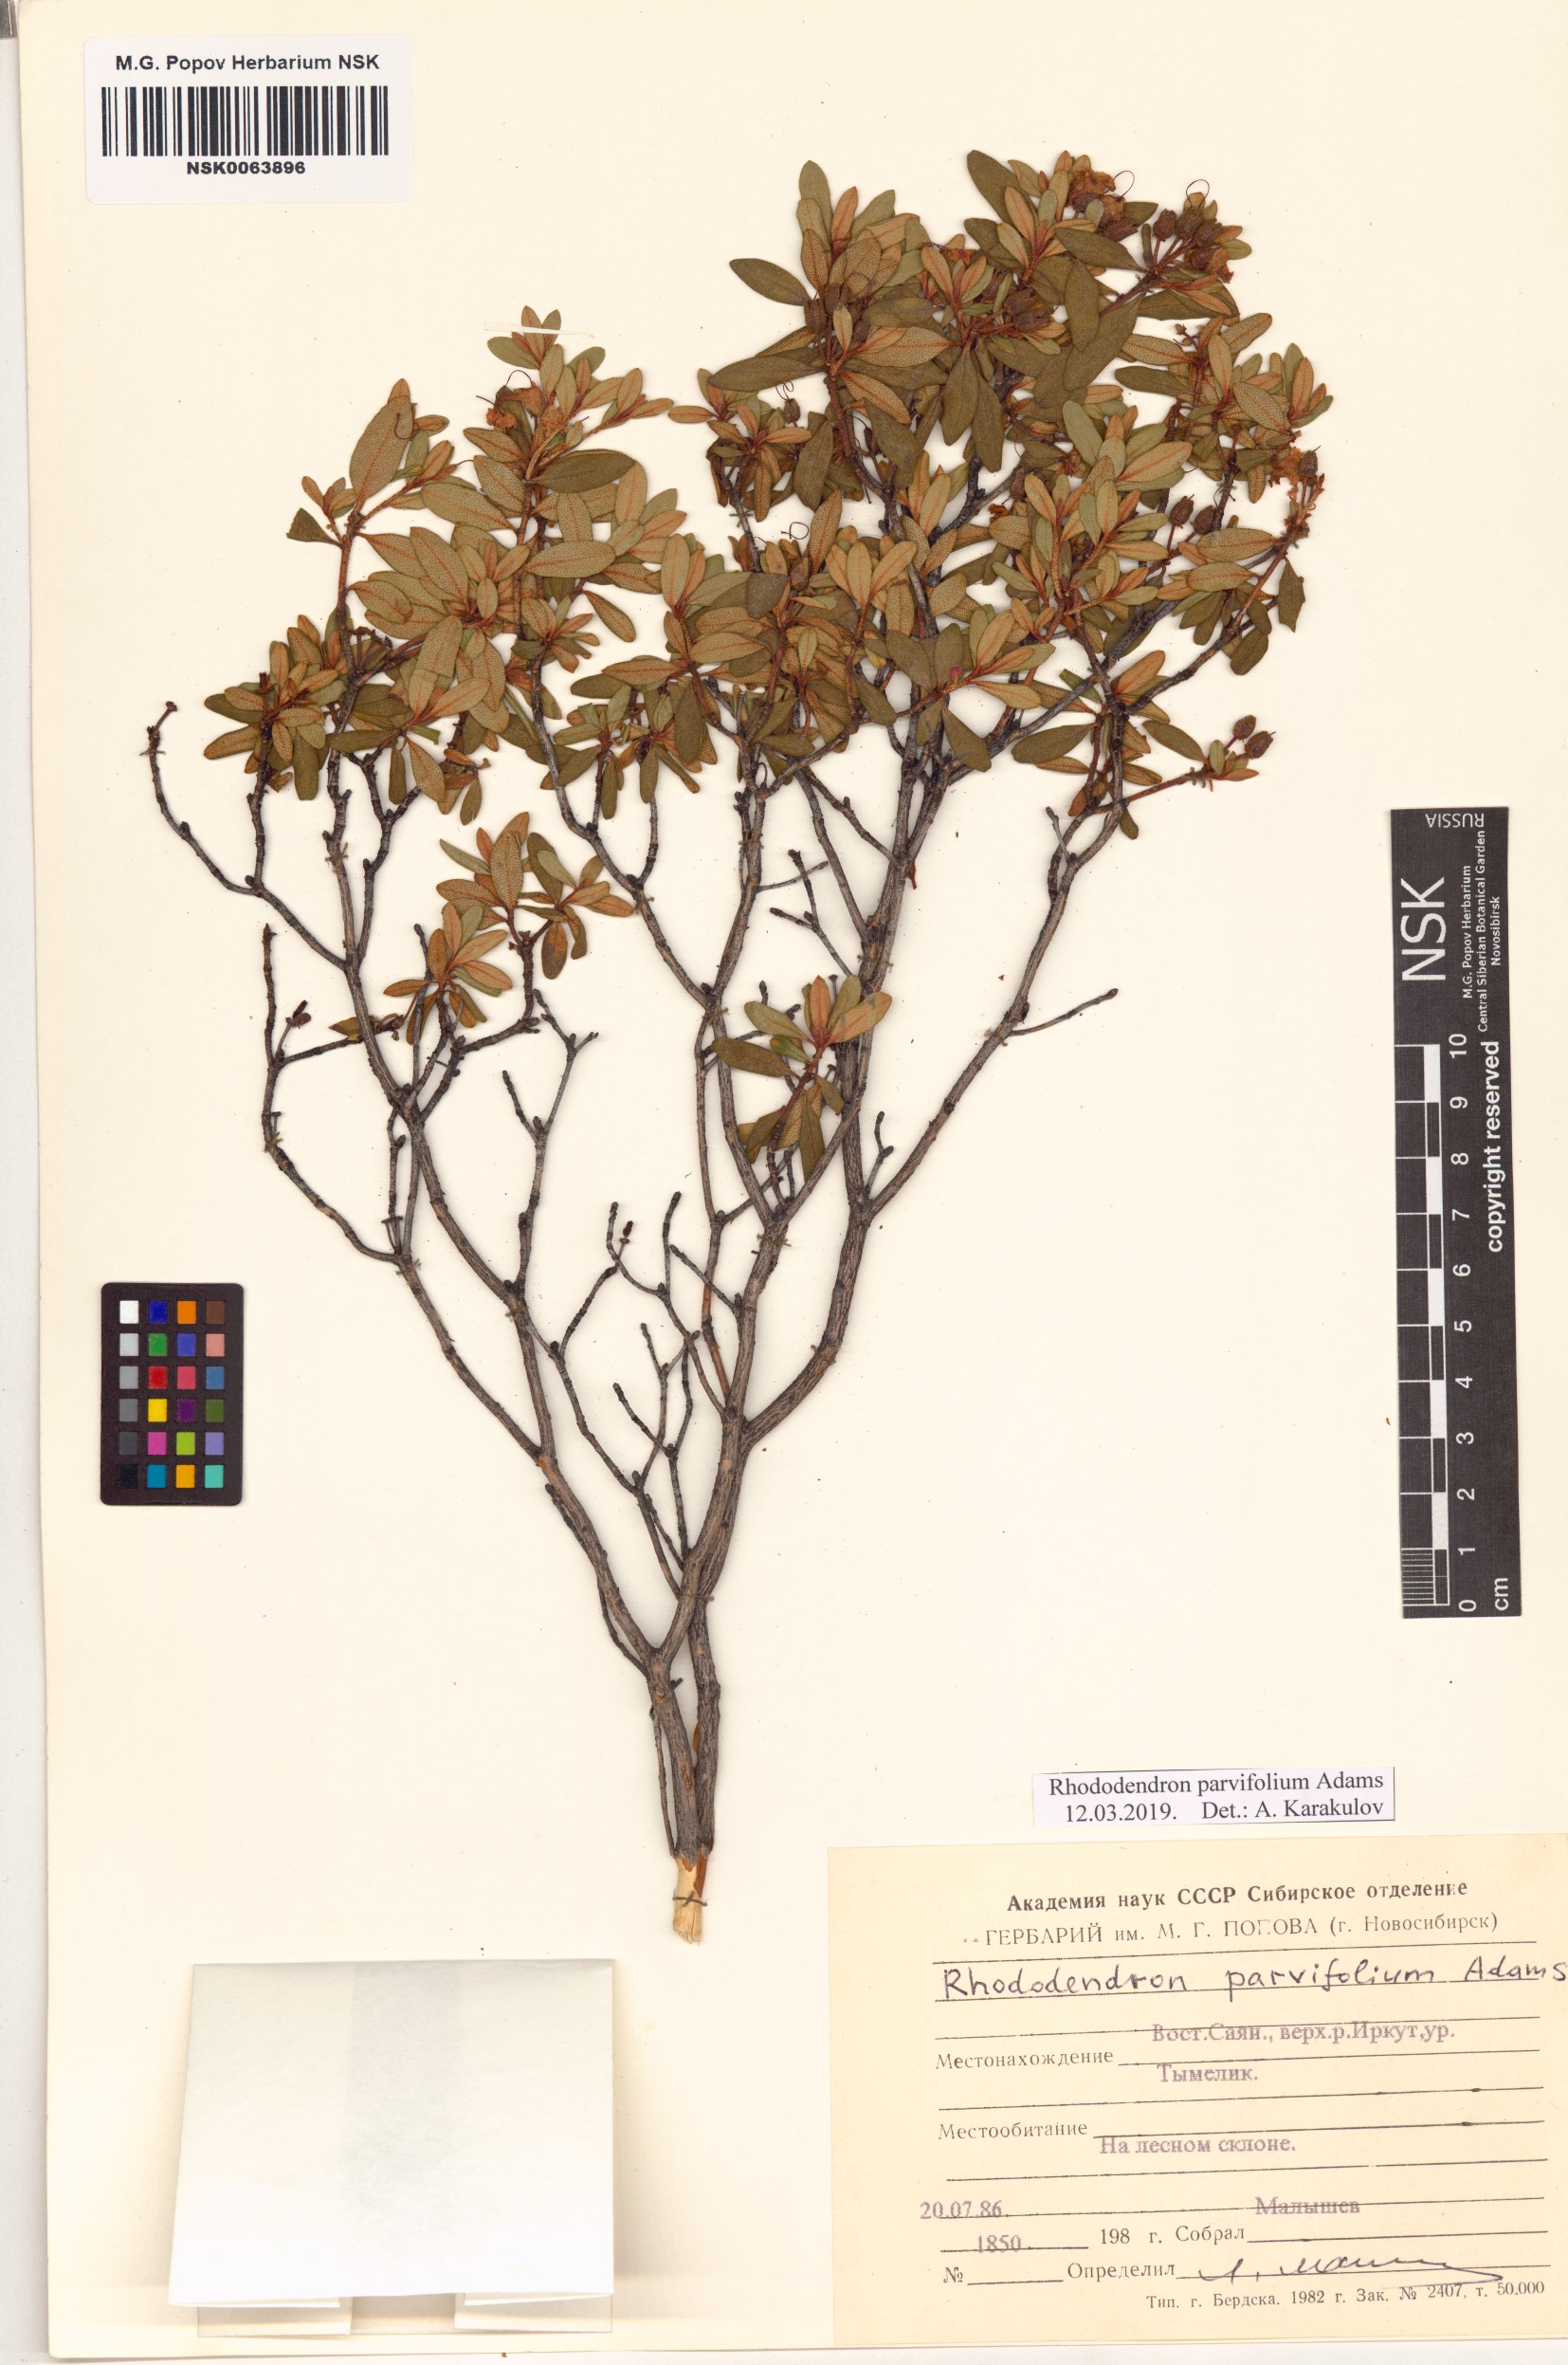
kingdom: Plantae
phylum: Tracheophyta
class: Magnoliopsida
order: Ericales
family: Ericaceae
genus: Rhododendron
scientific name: Rhododendron parvifolium
